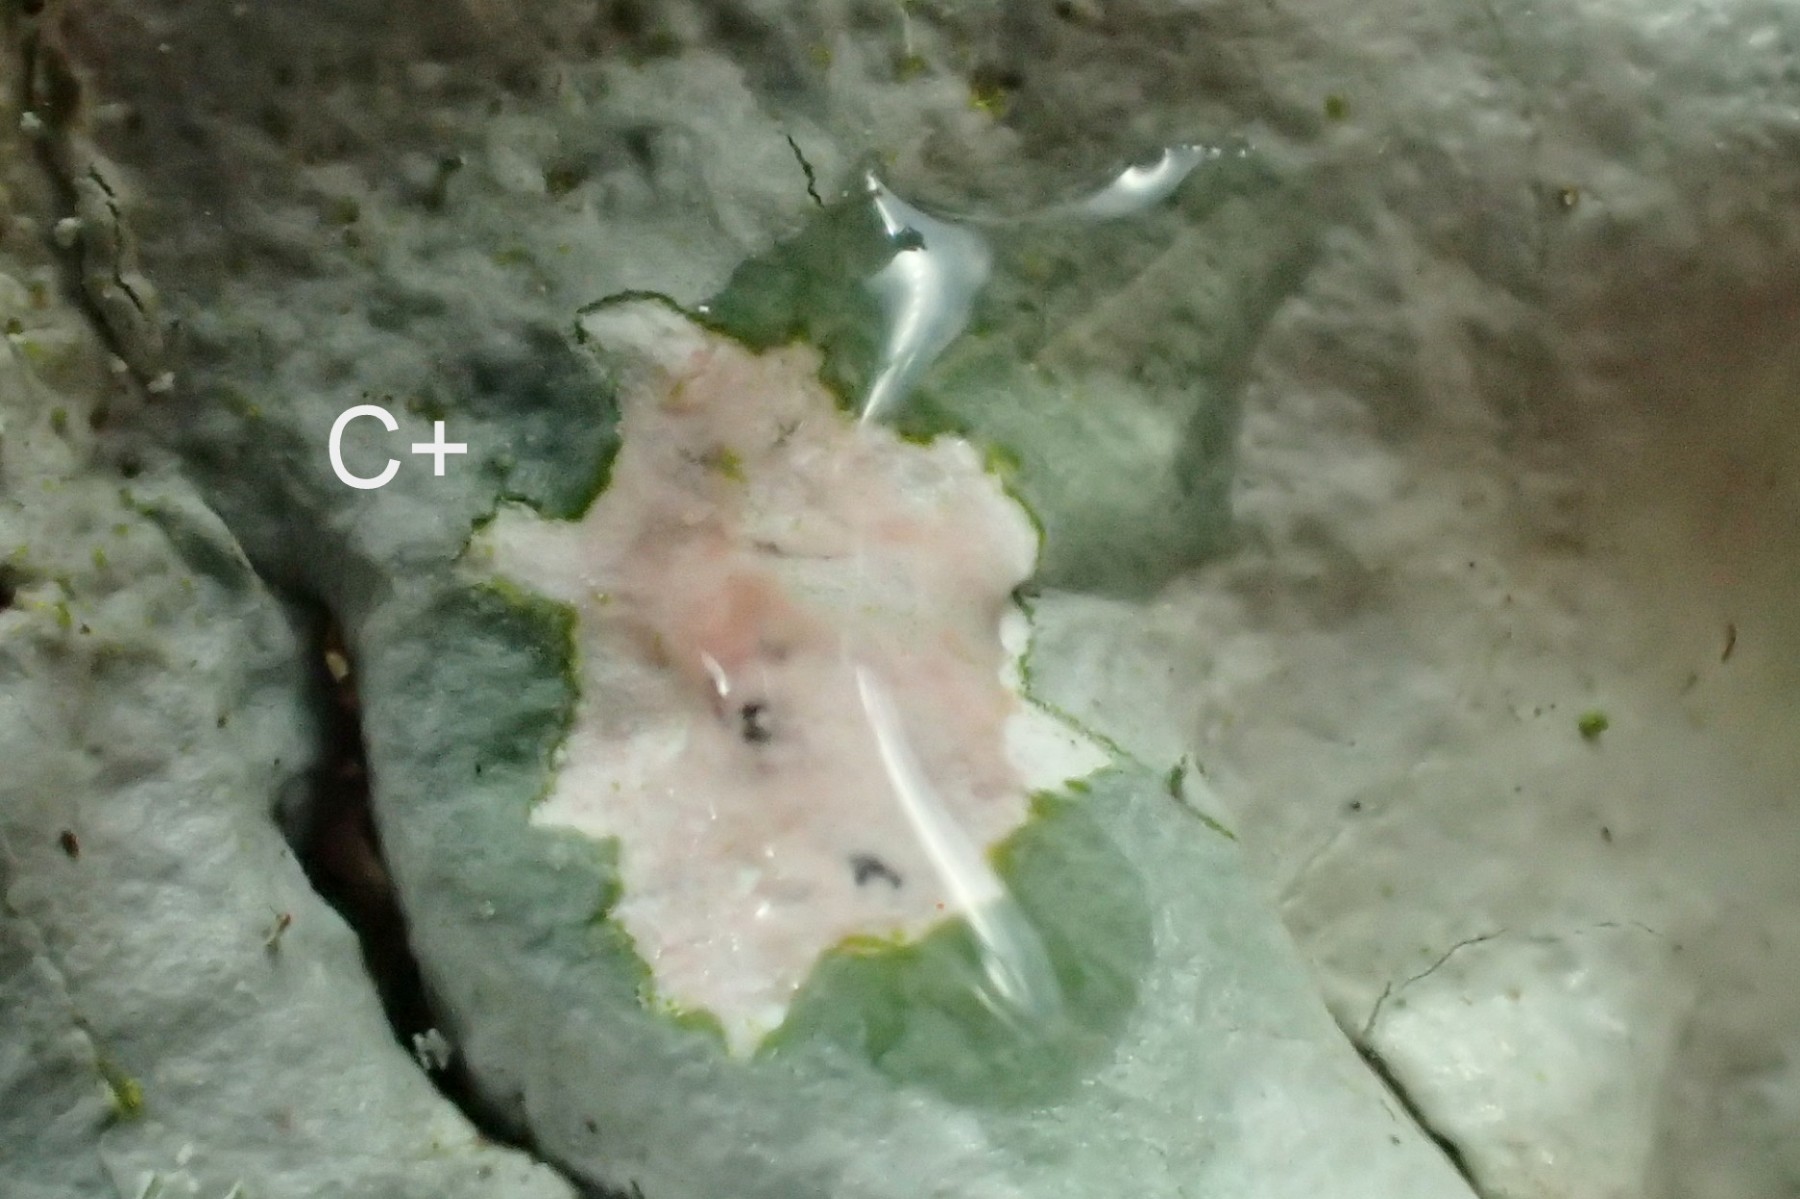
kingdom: Fungi
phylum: Ascomycota
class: Lecanoromycetes
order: Lecanorales
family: Parmeliaceae
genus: Hypotrachyna
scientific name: Hypotrachyna afrorevoluta
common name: kyst-skållav
